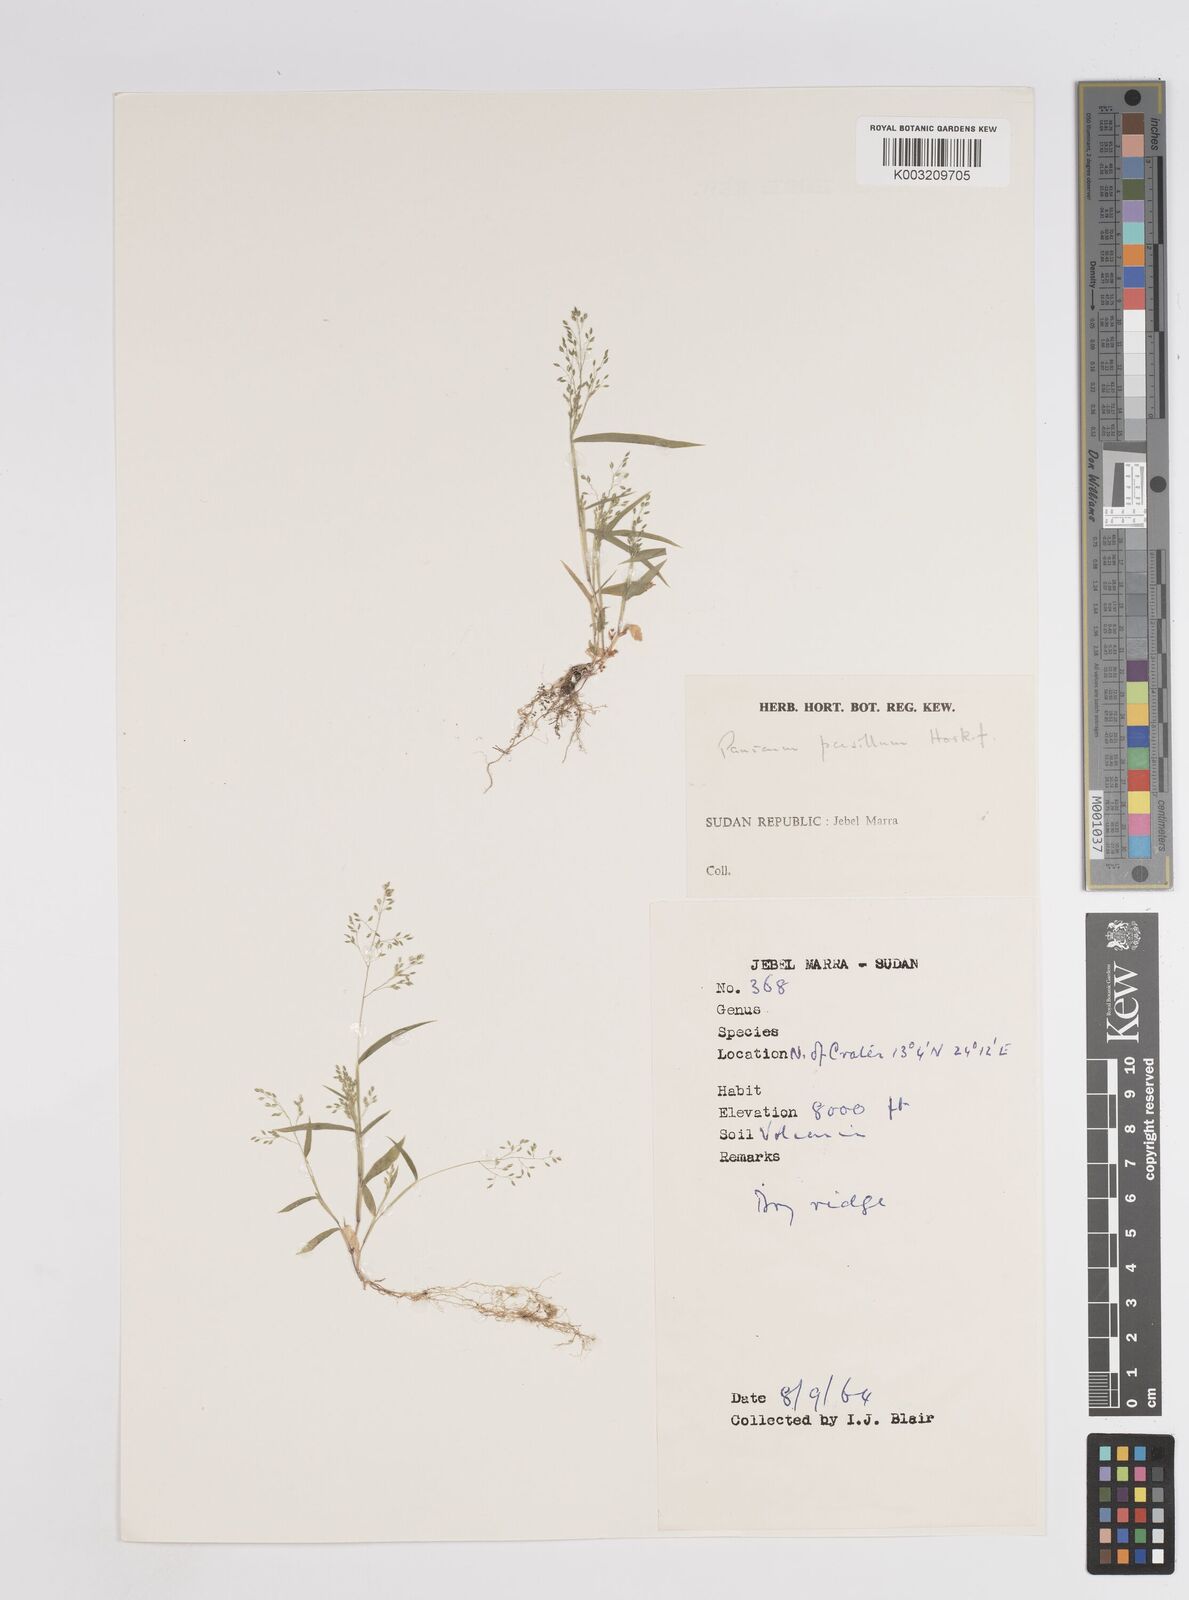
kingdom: Plantae
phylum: Tracheophyta
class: Liliopsida
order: Poales
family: Poaceae
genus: Panicum
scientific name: Panicum pusillum
